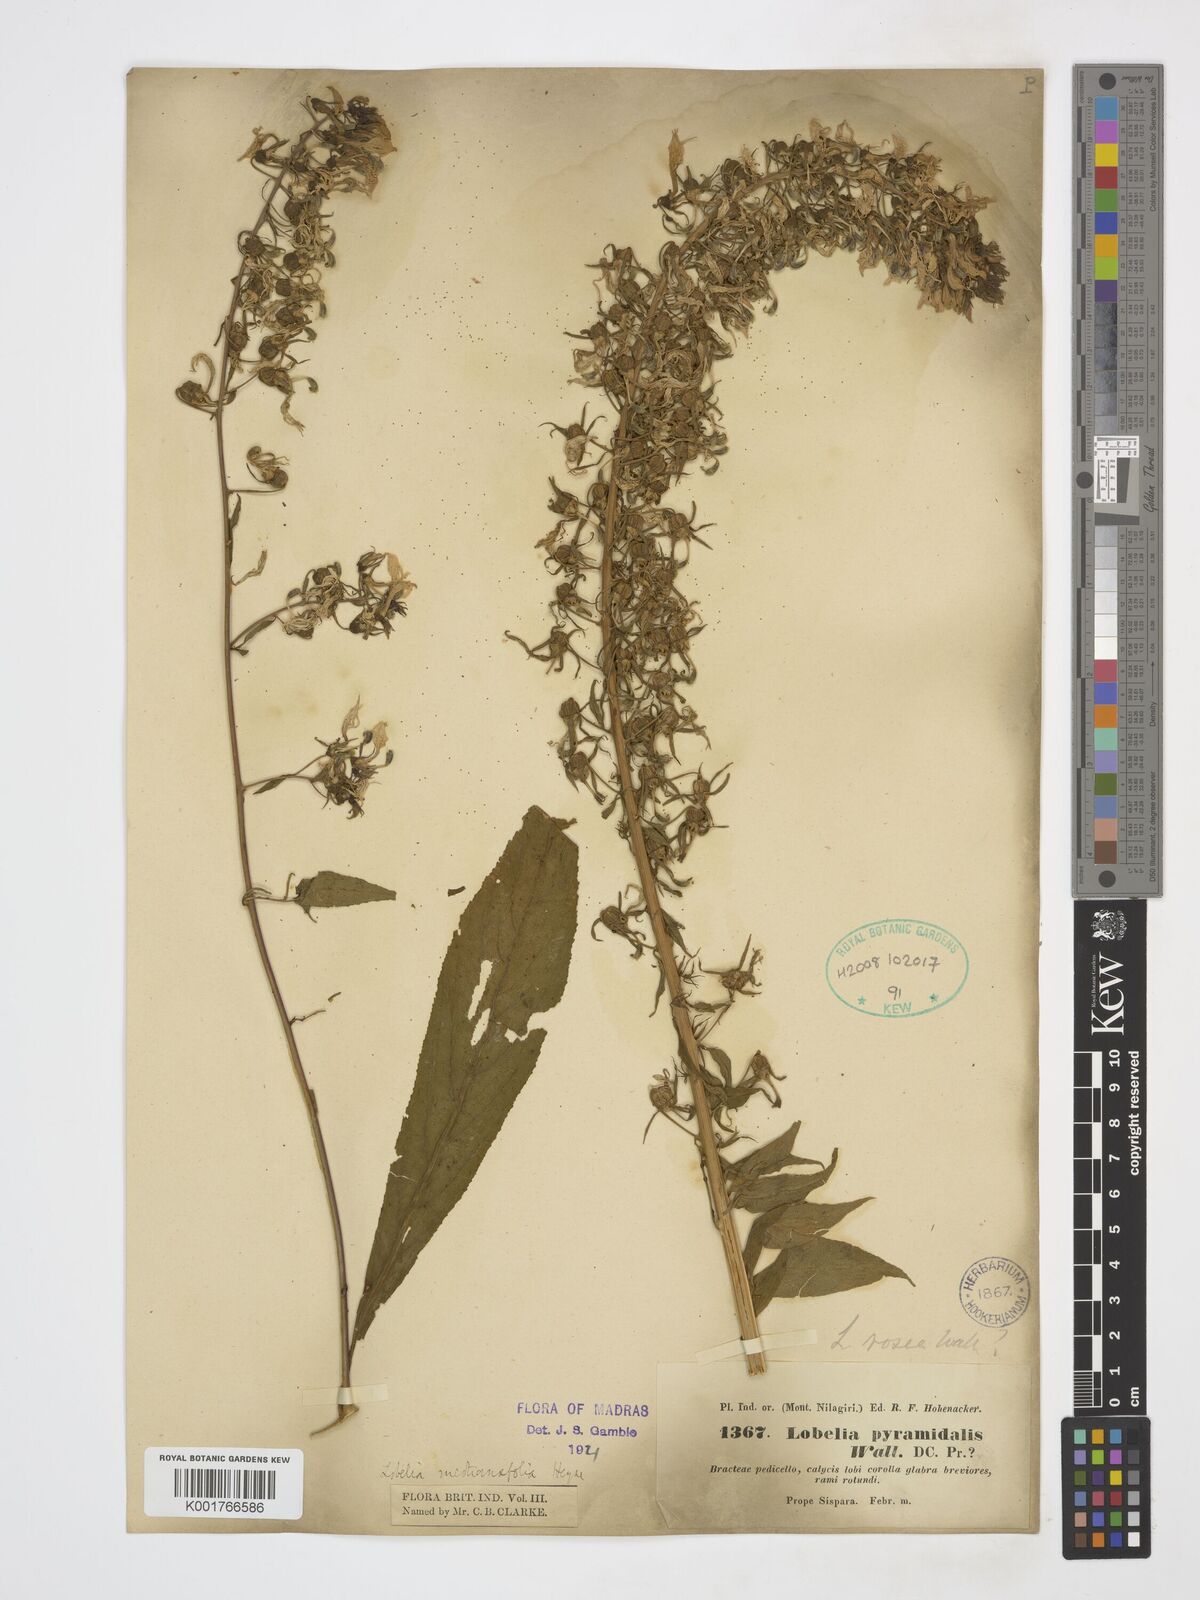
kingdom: Plantae
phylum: Tracheophyta
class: Magnoliopsida
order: Asterales
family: Campanulaceae
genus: Lobelia
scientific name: Lobelia nicotianifolia
